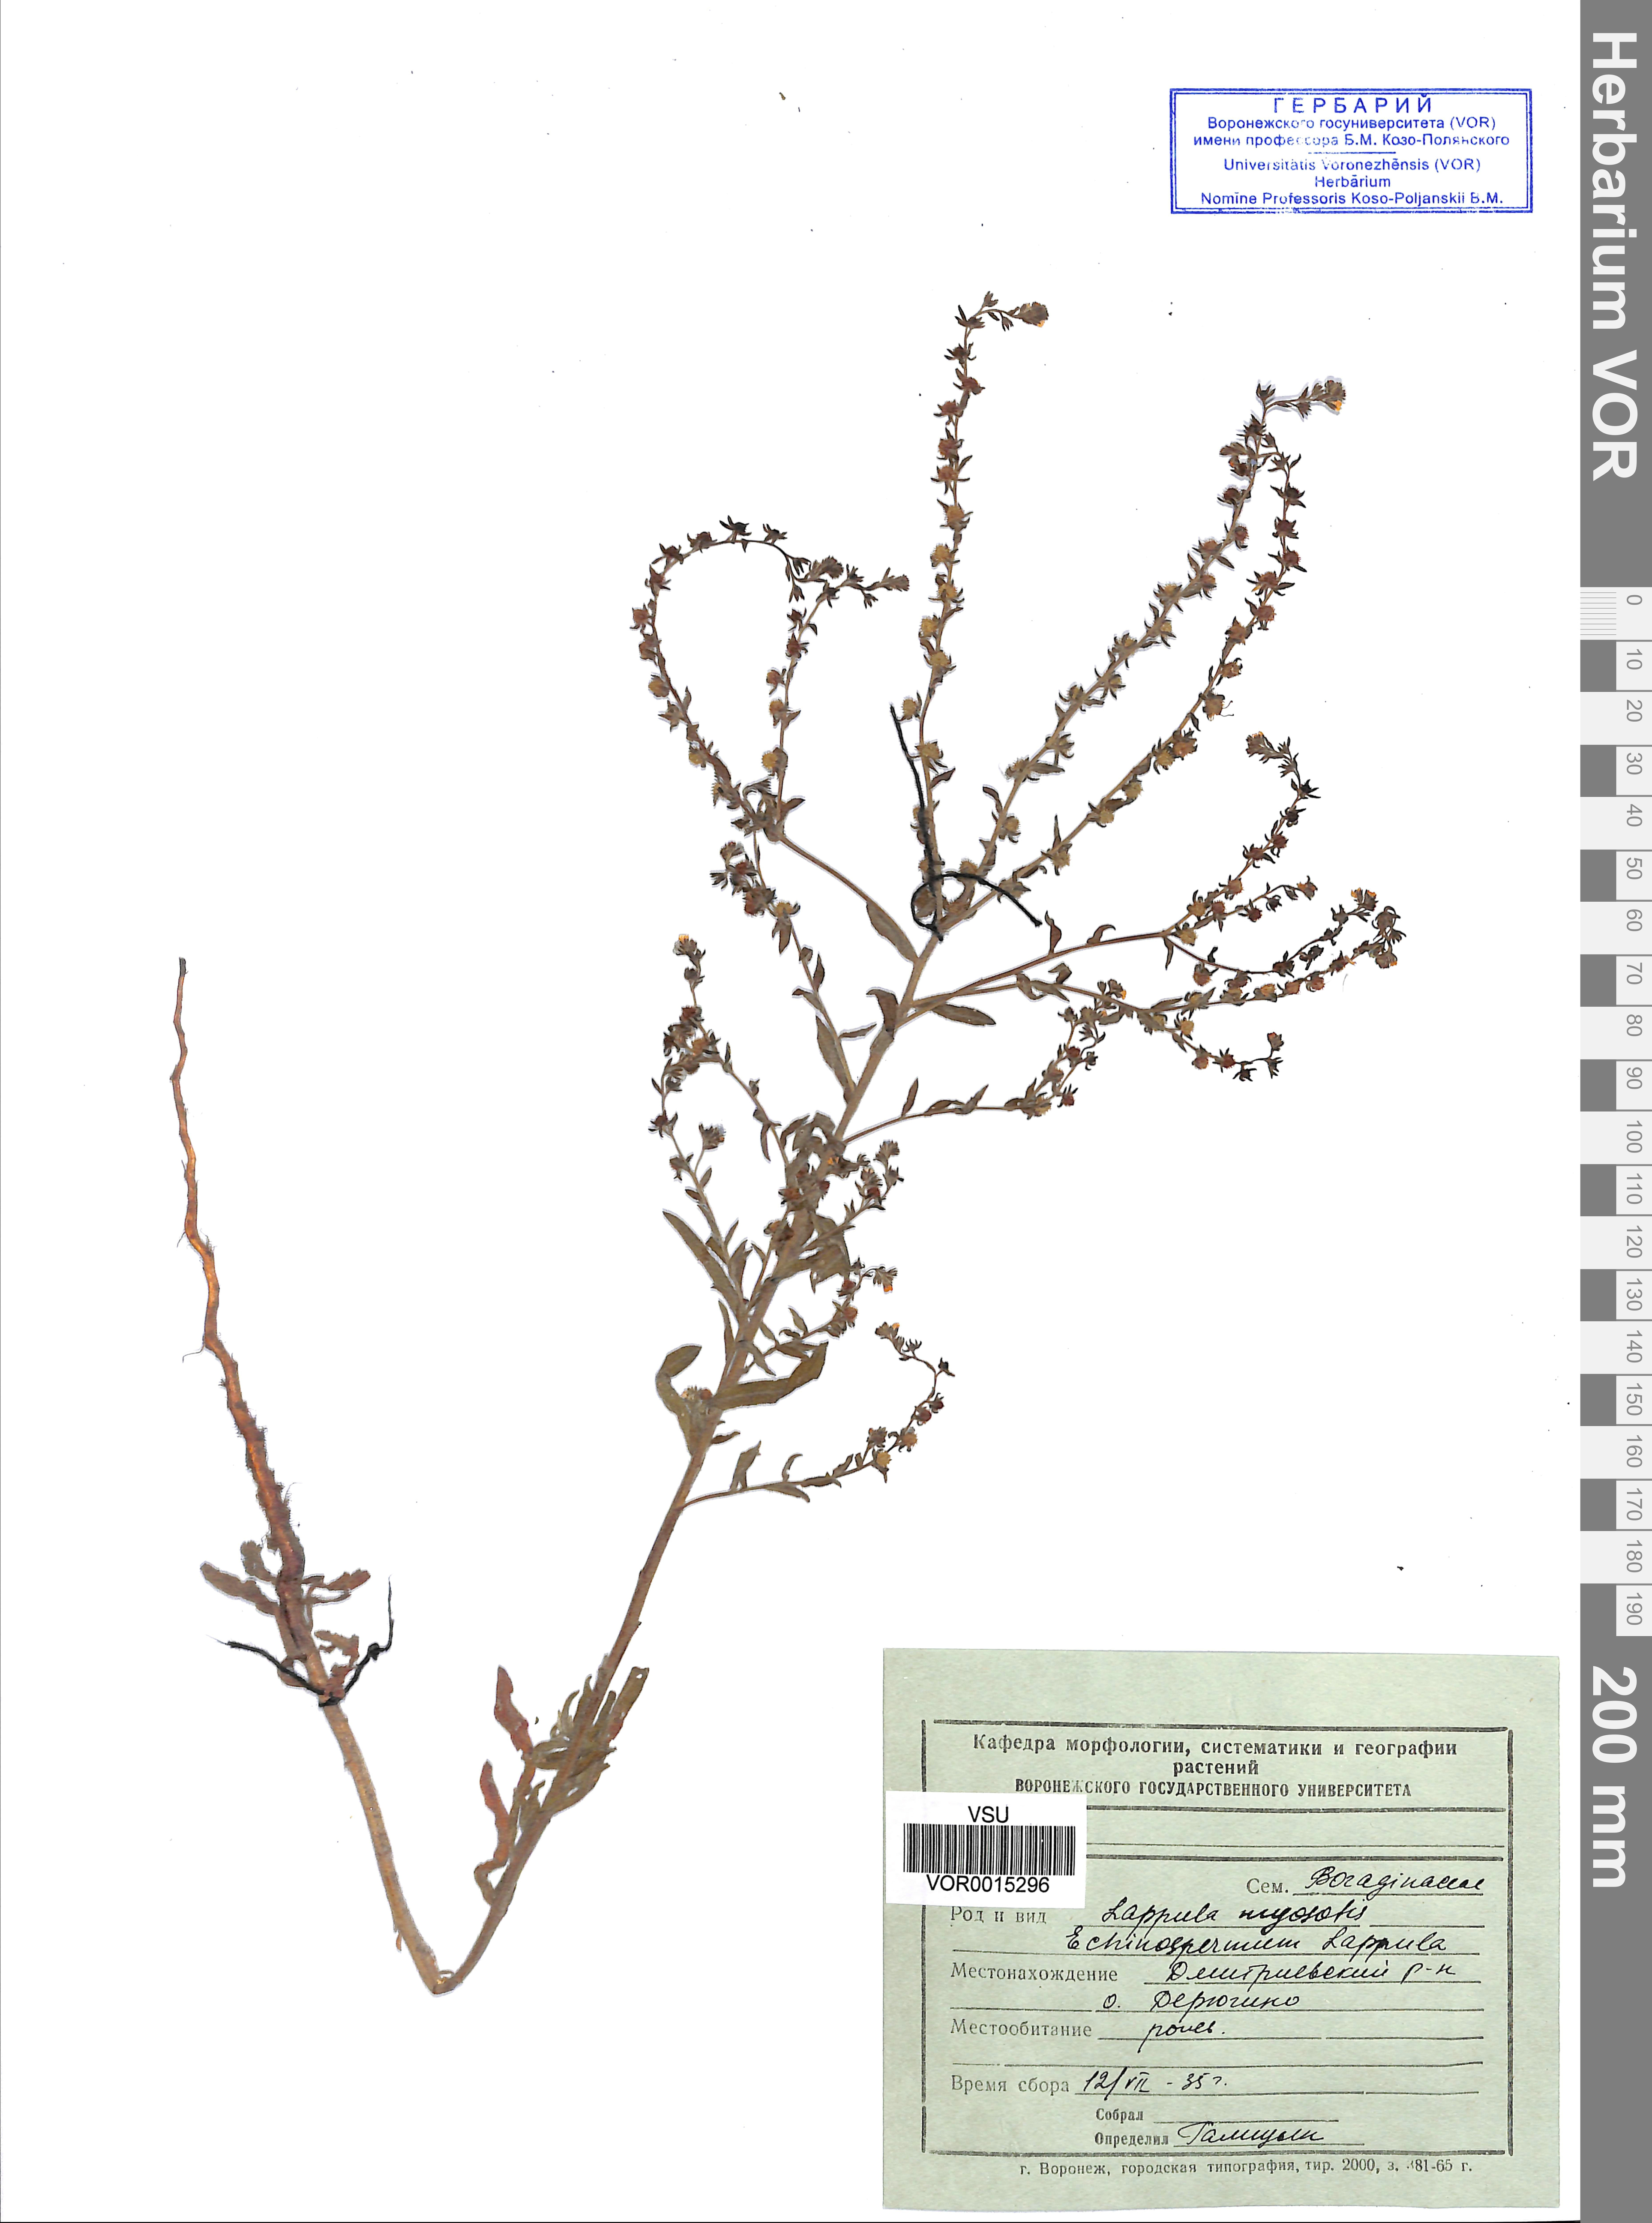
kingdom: Plantae
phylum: Tracheophyta
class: Magnoliopsida
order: Boraginales
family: Boraginaceae
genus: Lappula
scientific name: Lappula squarrosa
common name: European stickseed
